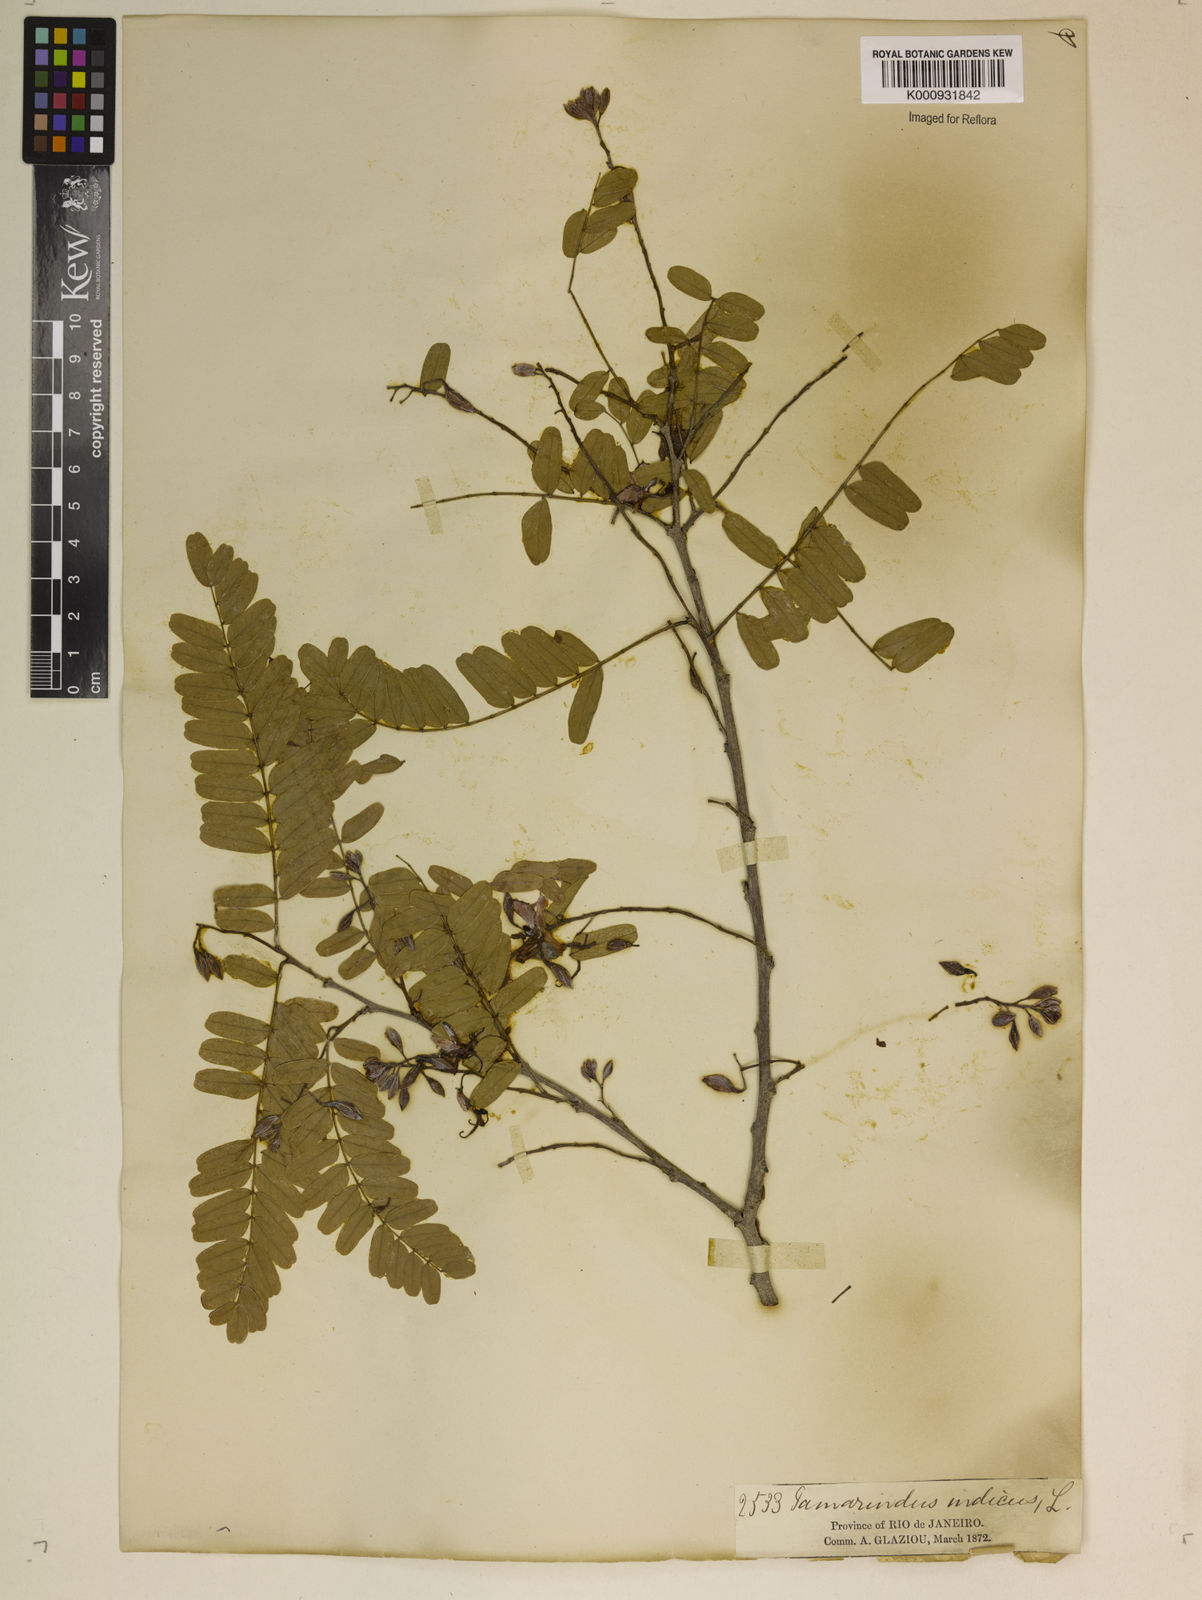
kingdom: Plantae
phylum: Tracheophyta
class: Magnoliopsida
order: Fabales
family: Fabaceae
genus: Tamarindus
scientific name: Tamarindus indica
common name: Tamarind
